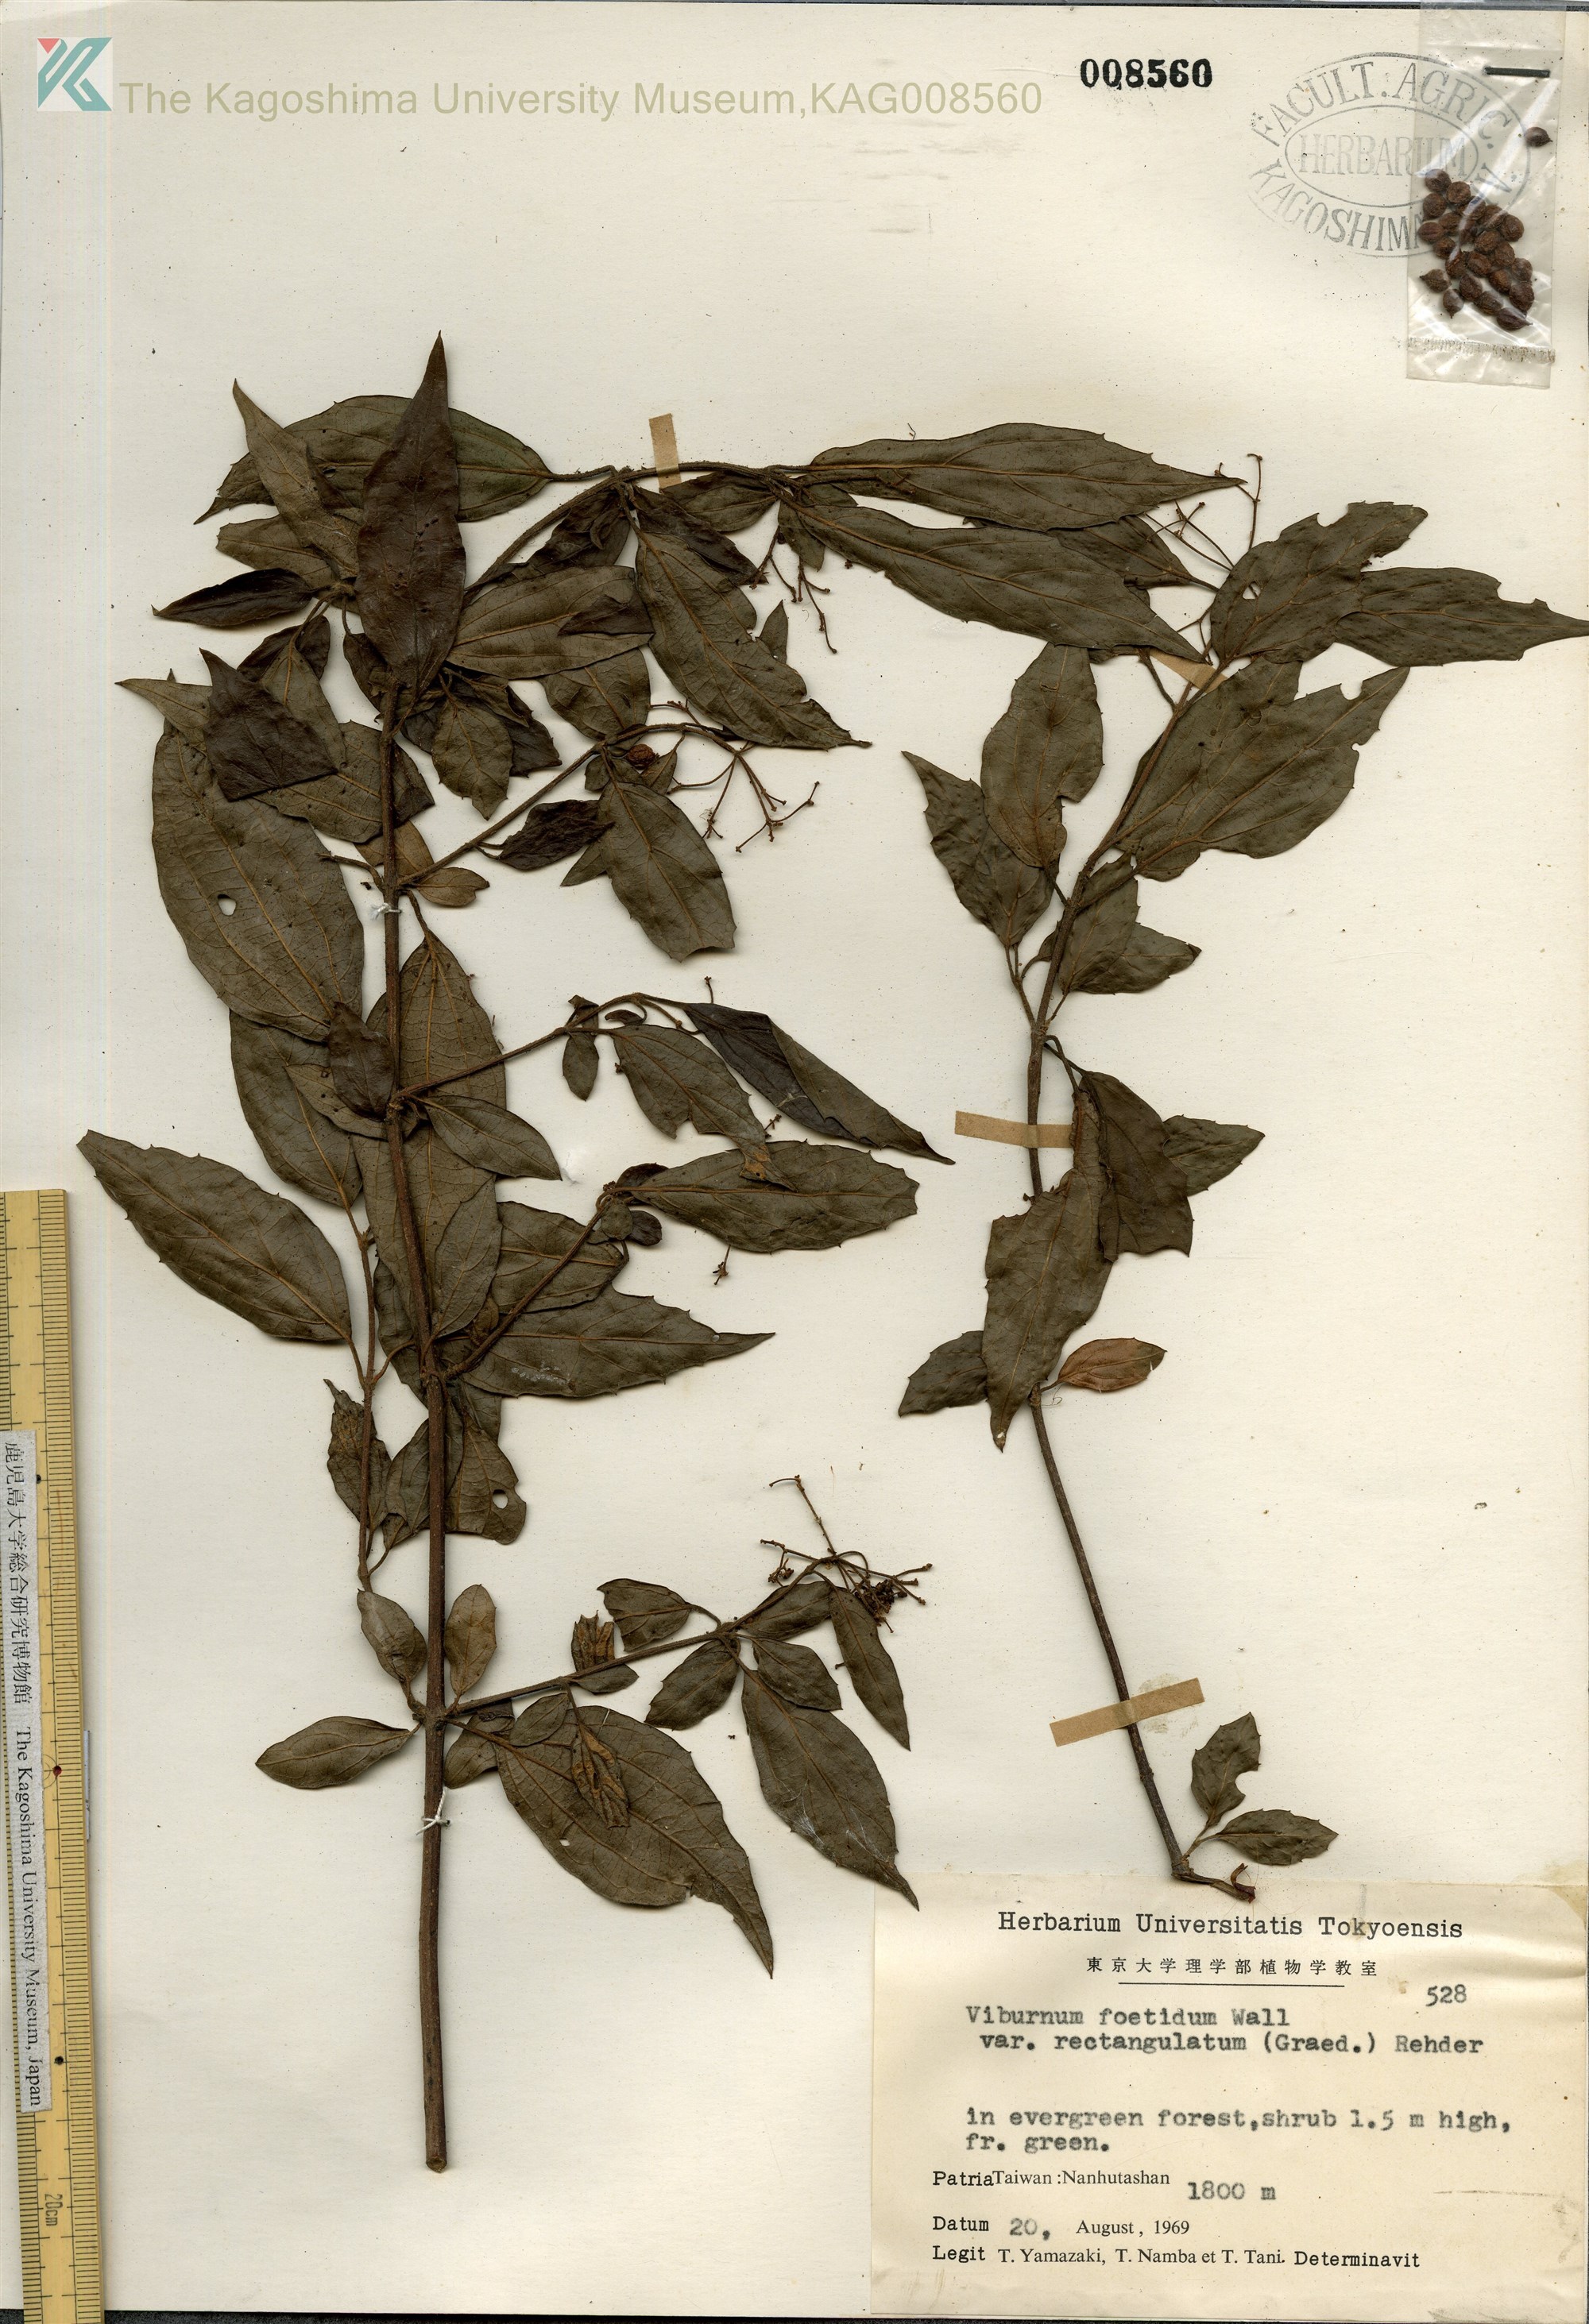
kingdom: Plantae
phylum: Tracheophyta
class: Magnoliopsida
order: Dipsacales
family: Viburnaceae
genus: Viburnum
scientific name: Viburnum foetidum
